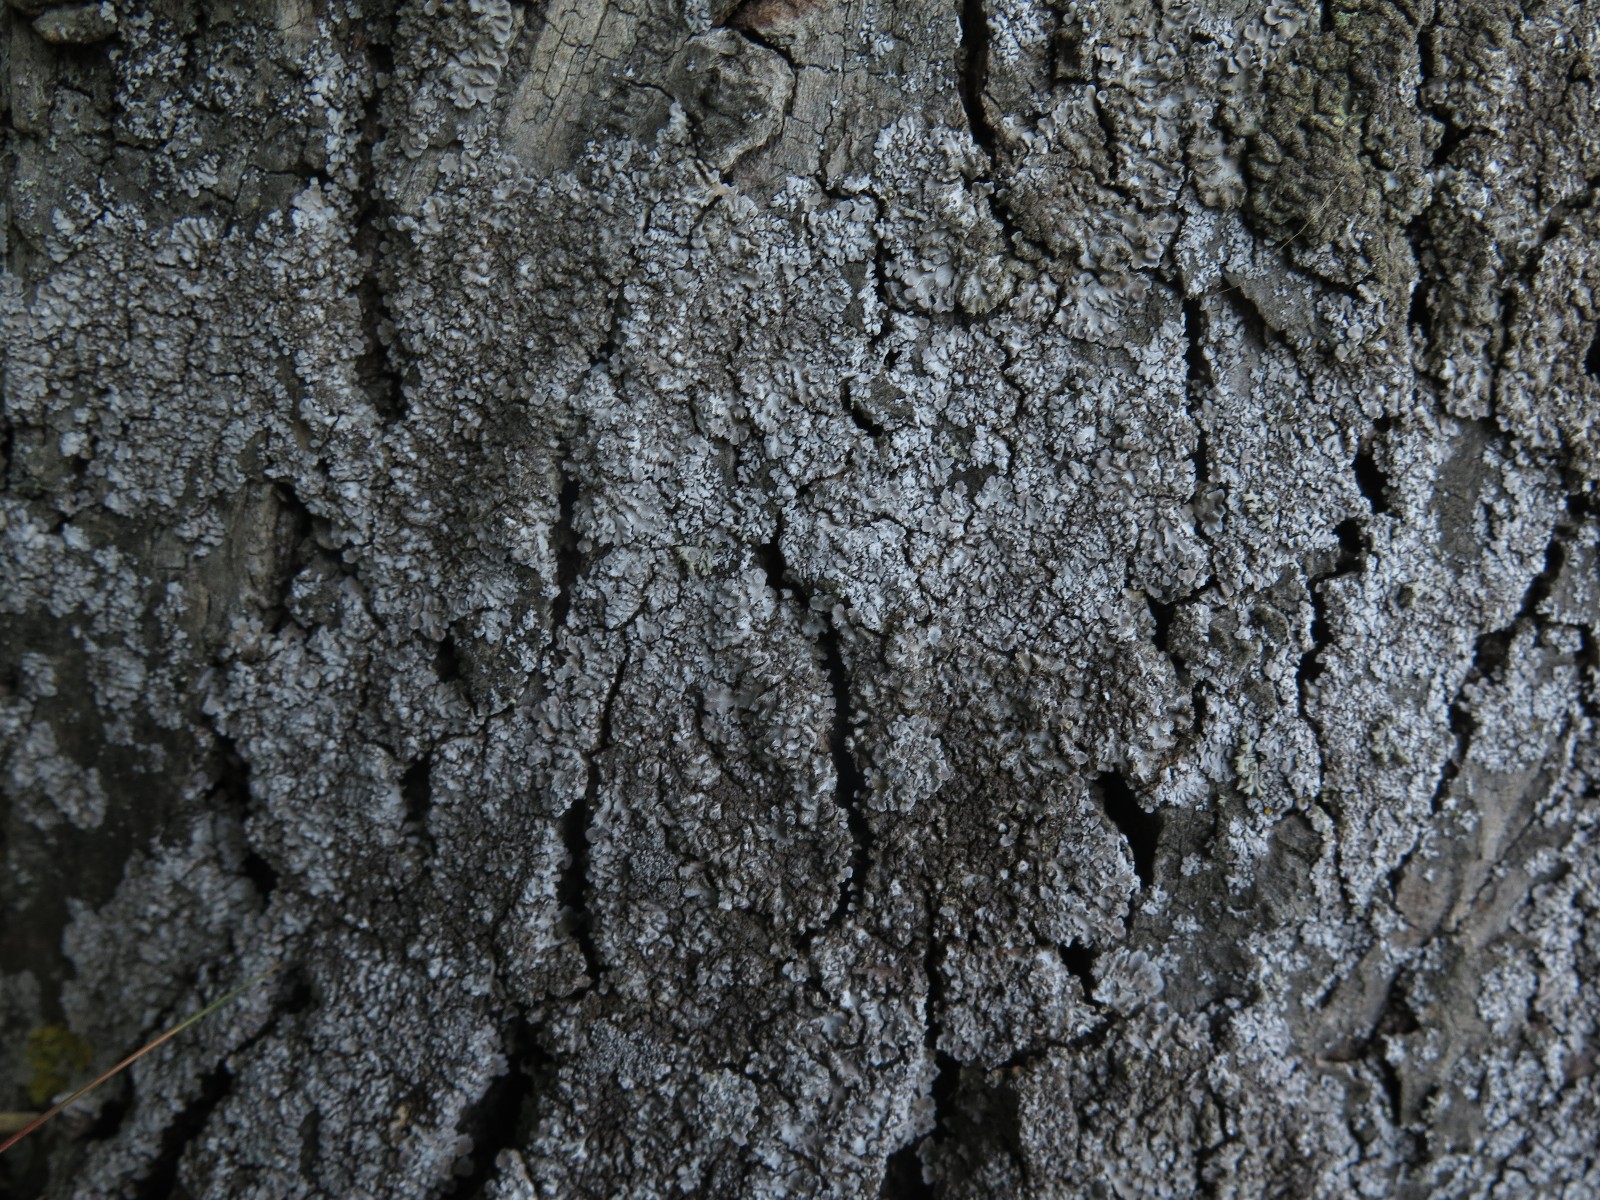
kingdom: Fungi
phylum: Ascomycota
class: Lecanoromycetes
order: Caliciales
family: Physciaceae
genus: Physconia
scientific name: Physconia
